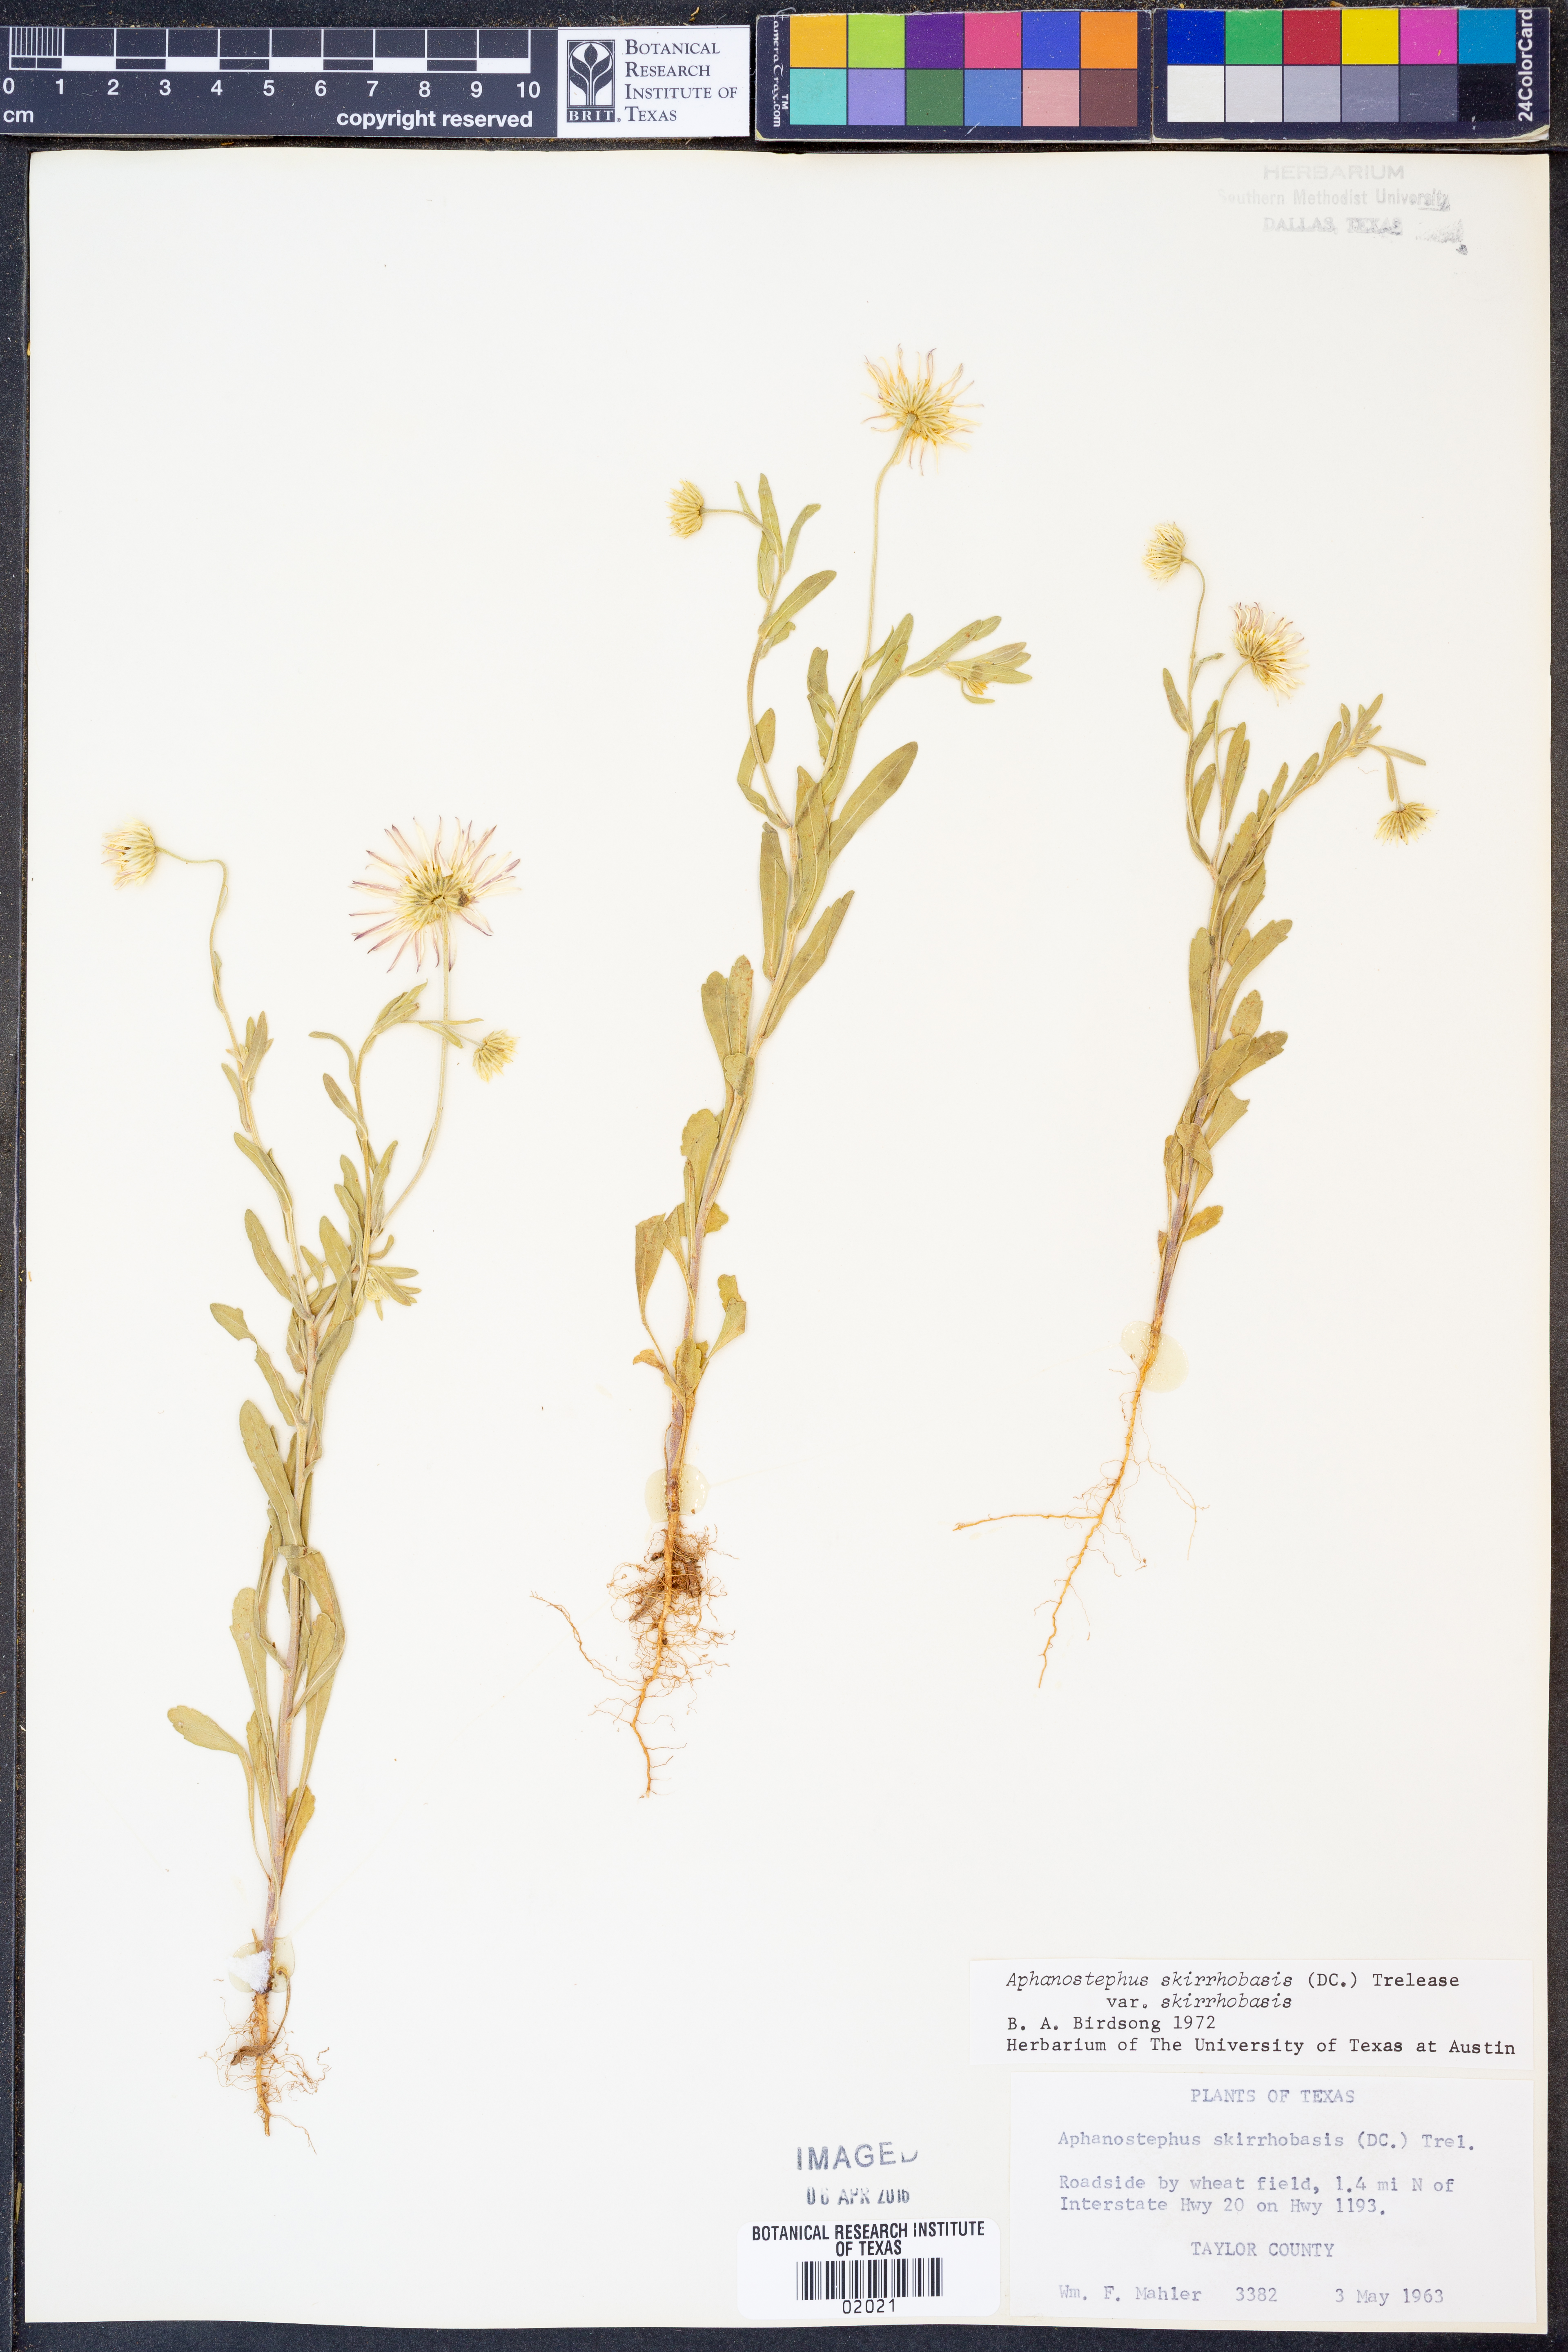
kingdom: Plantae
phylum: Tracheophyta
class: Magnoliopsida
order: Asterales
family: Asteraceae
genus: Aphanostephus
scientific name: Aphanostephus skirrhobasis
